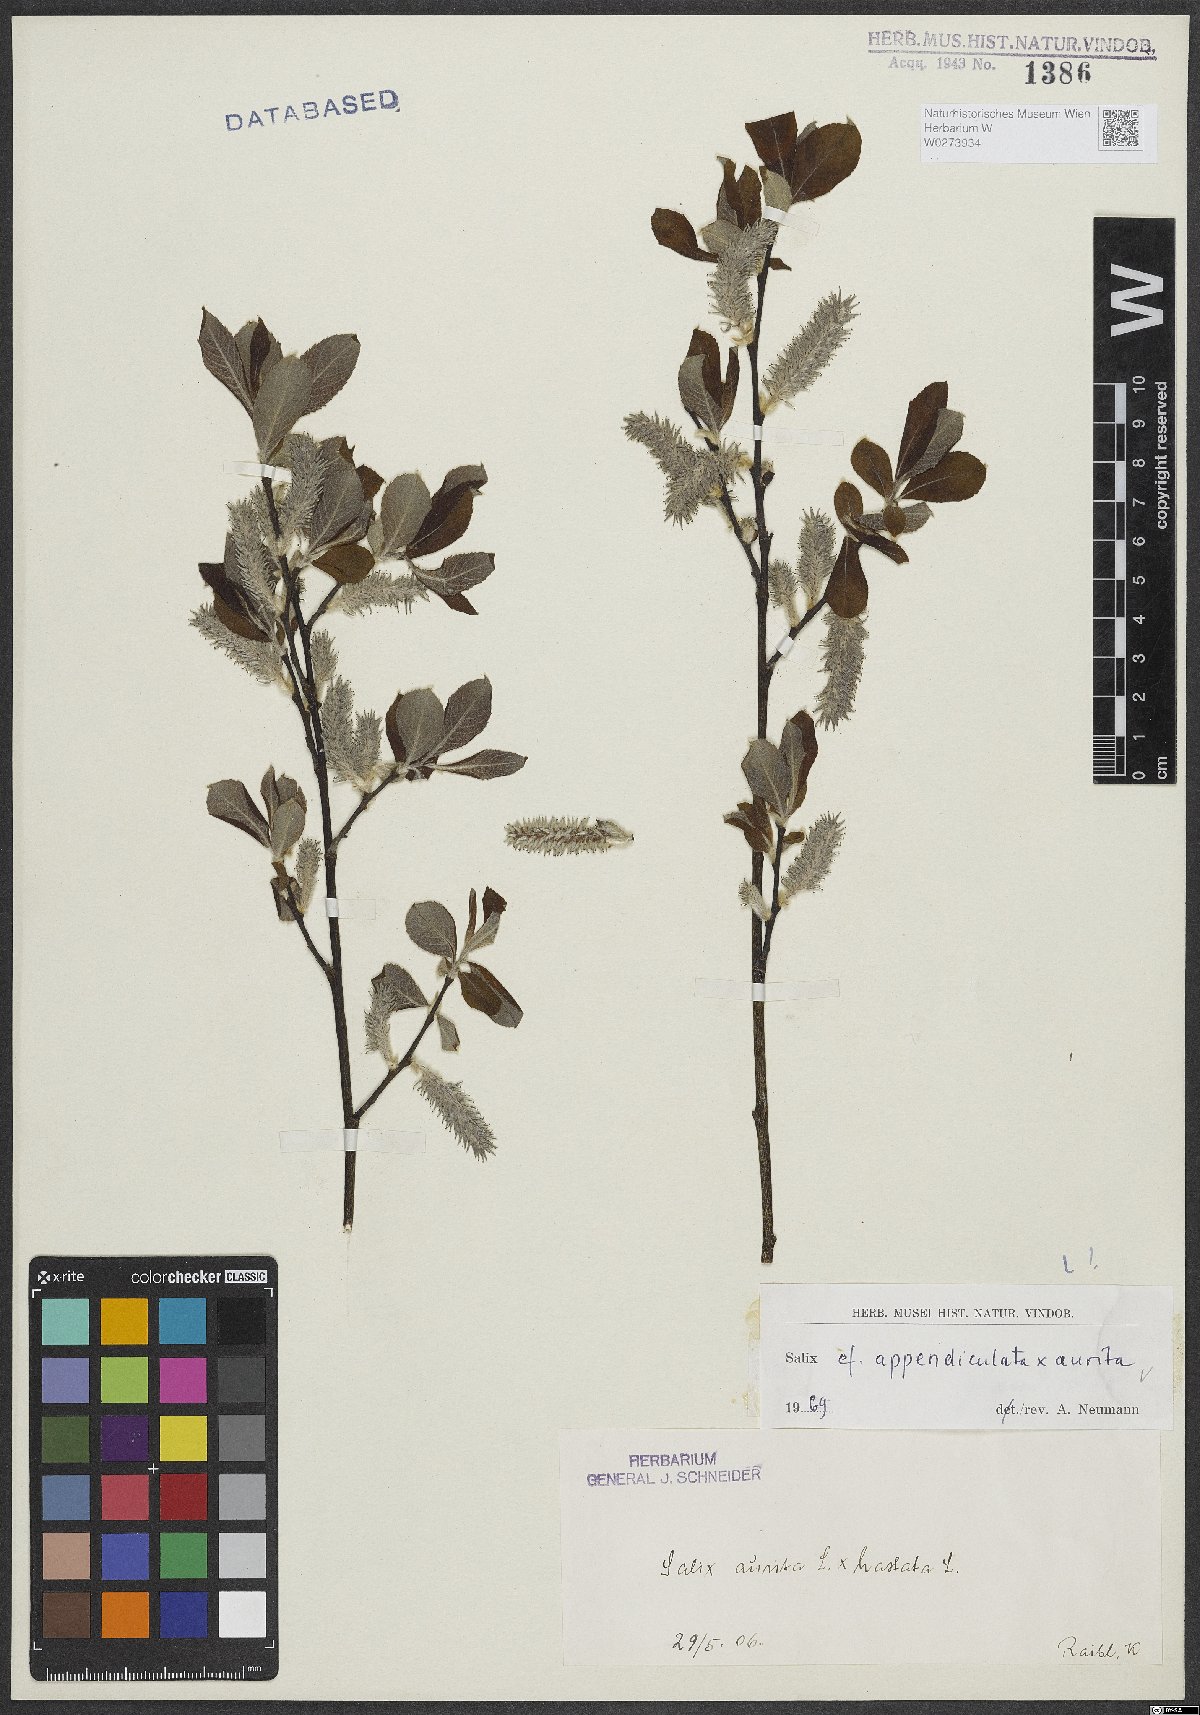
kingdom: Plantae
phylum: Tracheophyta
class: Magnoliopsida
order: Malpighiales
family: Salicaceae
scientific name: Salicaceae
